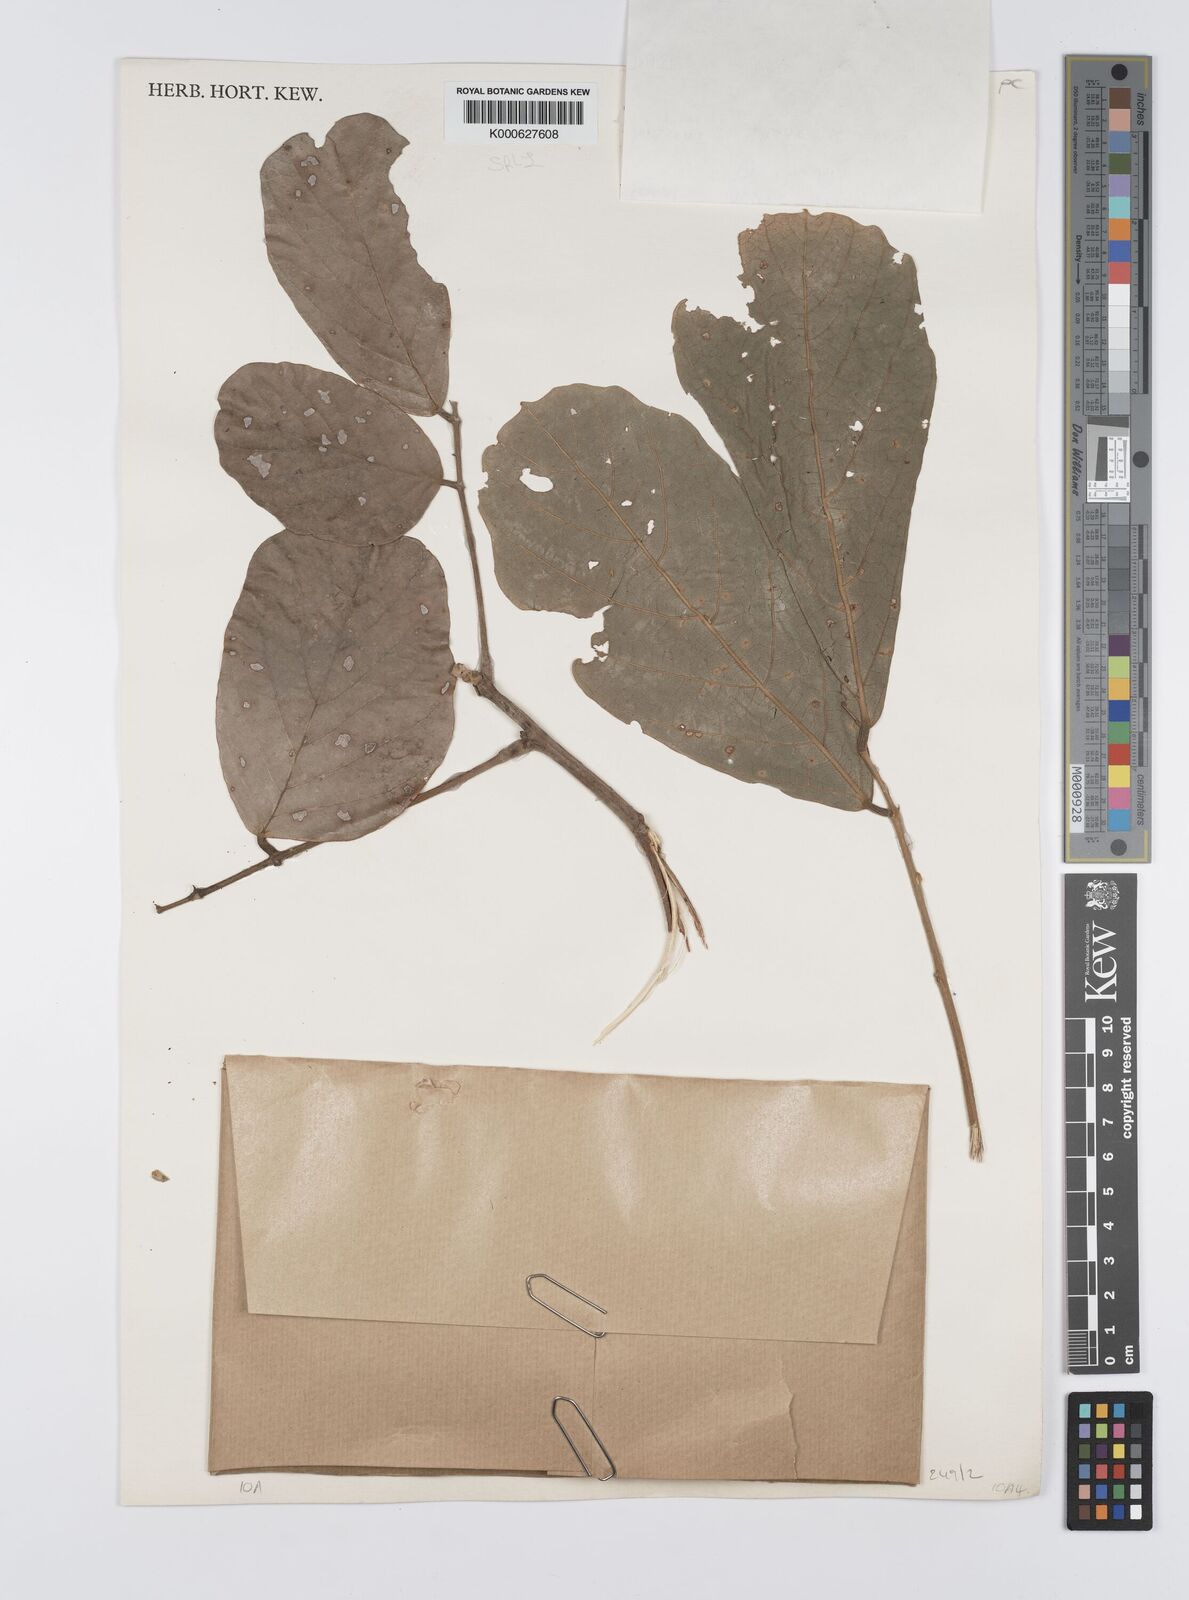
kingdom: Plantae
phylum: Tracheophyta
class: Magnoliopsida
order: Fabales
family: Fabaceae
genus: Leptoderris
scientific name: Leptoderris brachyptera
